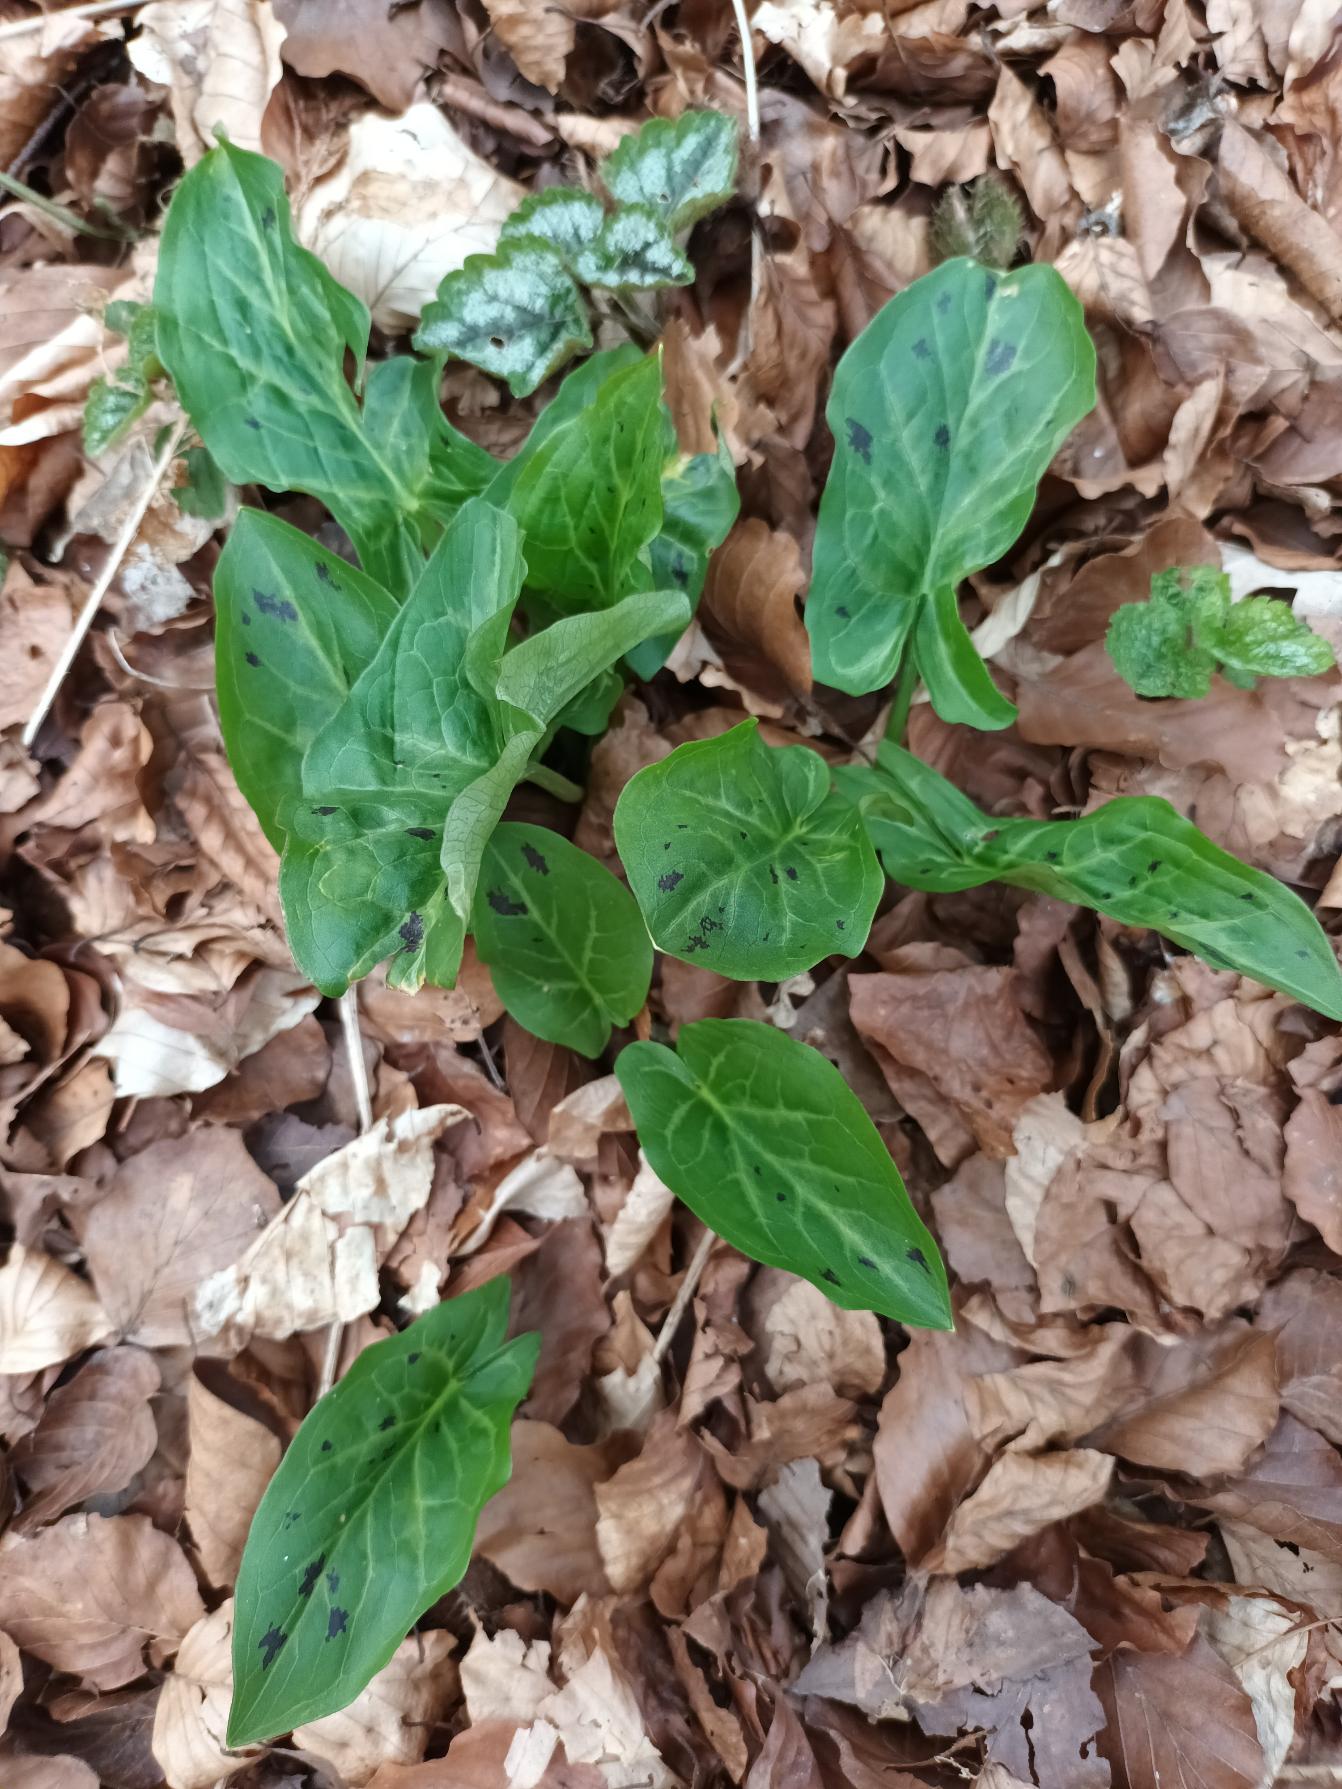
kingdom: Plantae
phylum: Tracheophyta
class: Liliopsida
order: Alismatales
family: Araceae
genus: Arum
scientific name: Arum maculatum
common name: Plettet arum
